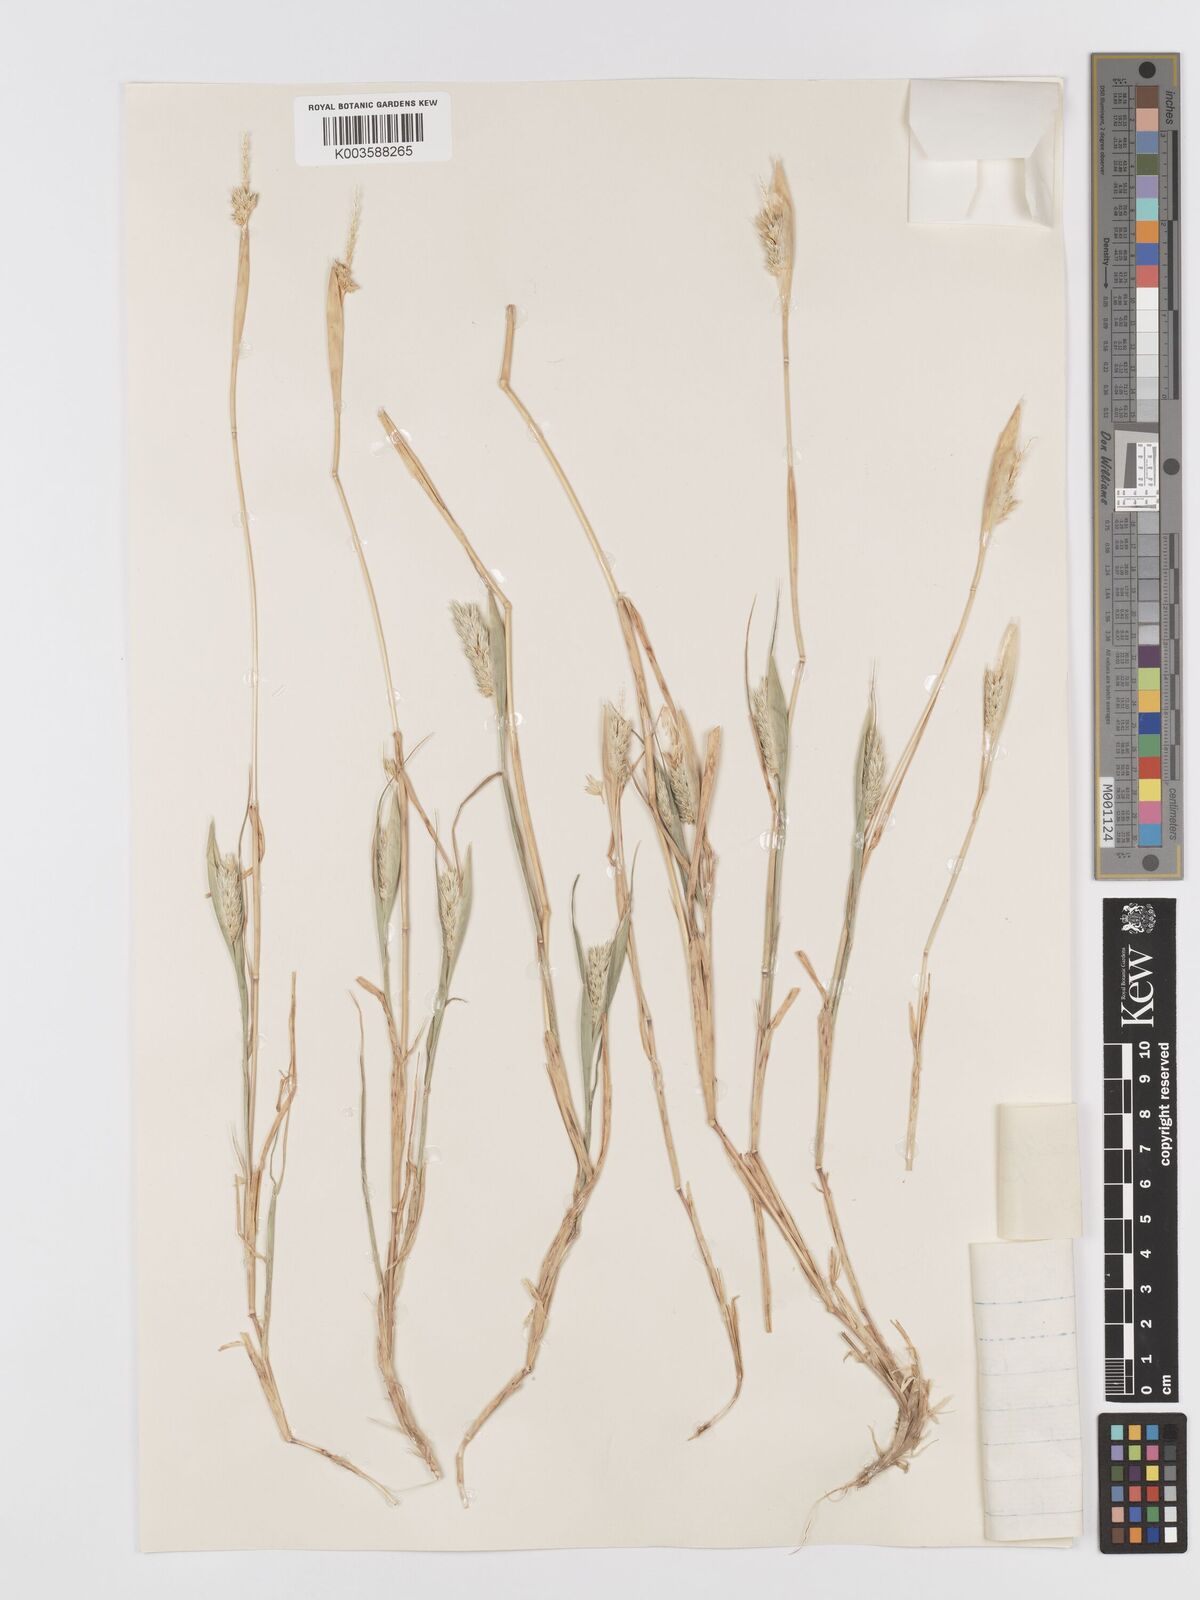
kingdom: Plantae
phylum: Tracheophyta
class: Liliopsida
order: Poales
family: Poaceae
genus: Phalaris
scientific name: Phalaris paradoxa
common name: Awned canary-grass
